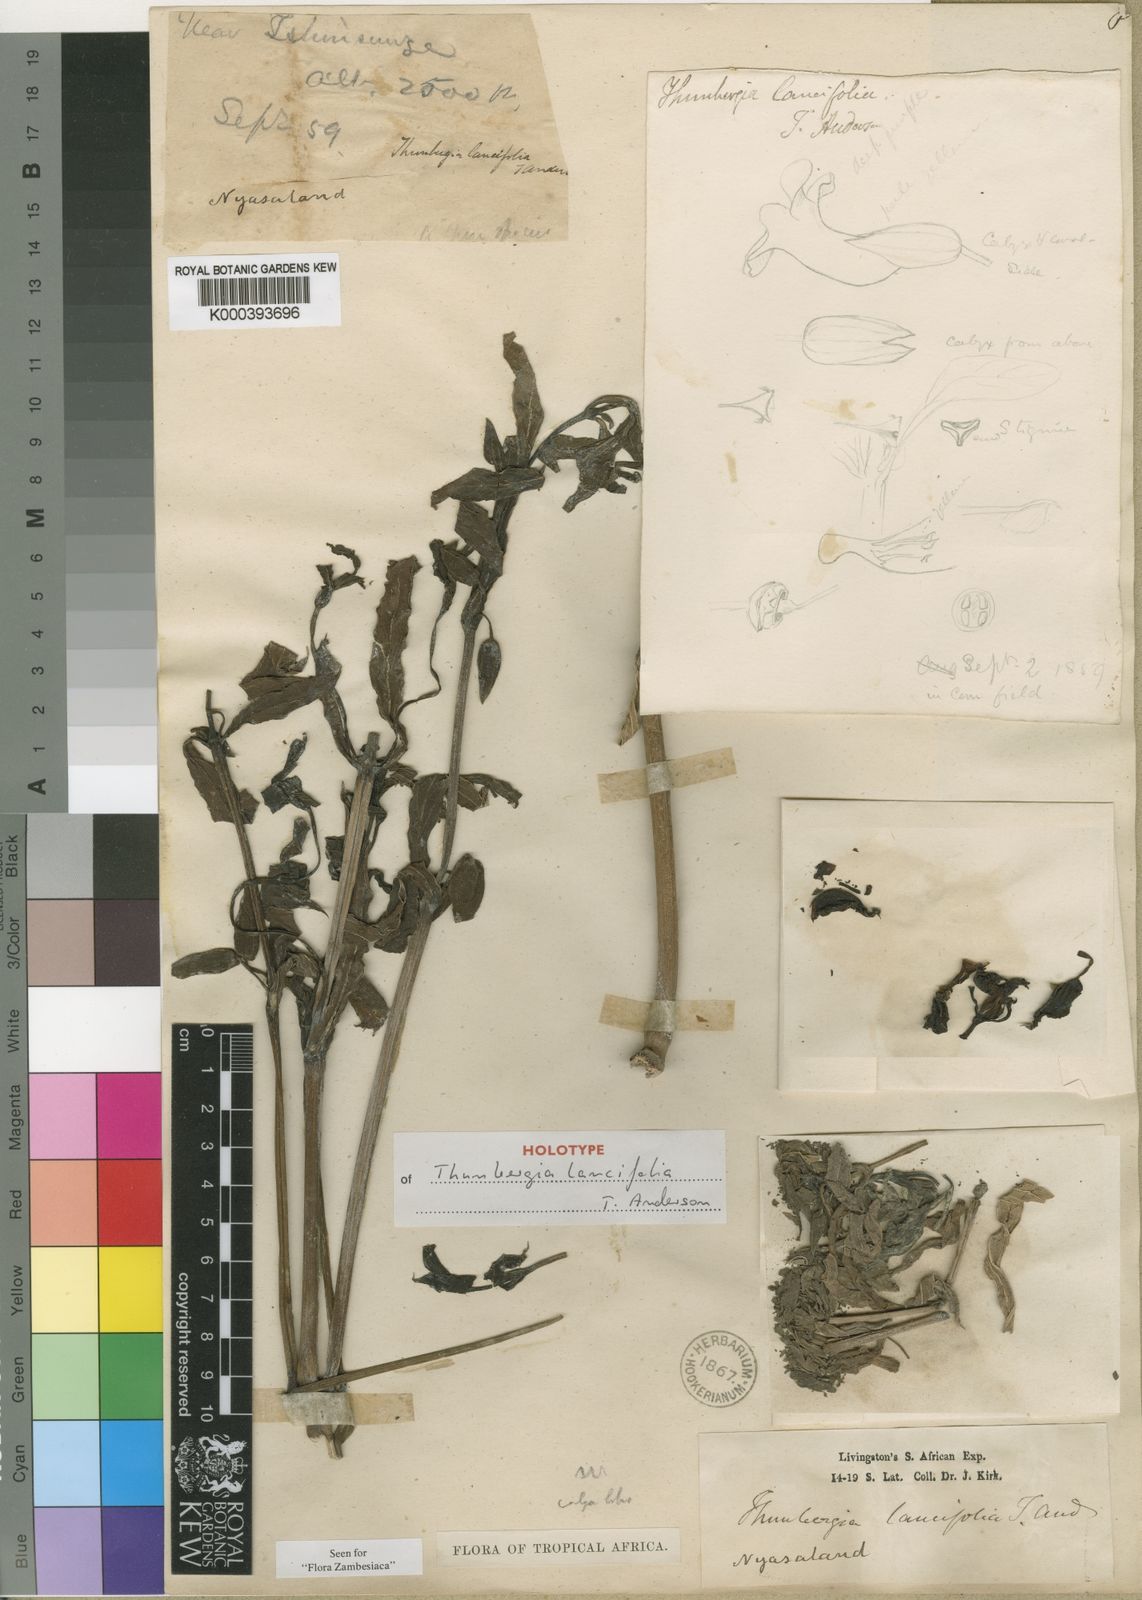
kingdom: Plantae
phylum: Tracheophyta
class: Magnoliopsida
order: Lamiales
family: Acanthaceae
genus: Thunbergia
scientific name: Thunbergia lancifolia
